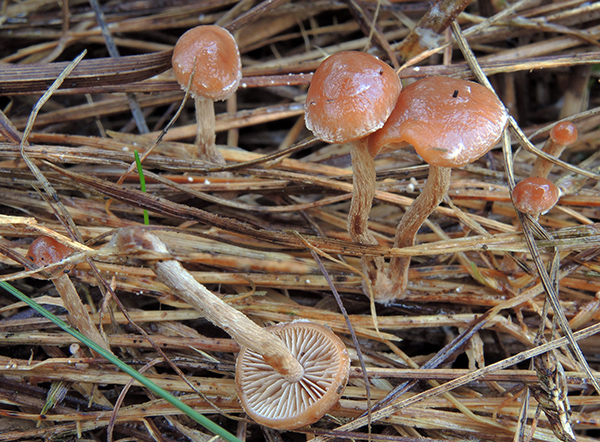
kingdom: Fungi
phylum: Basidiomycota
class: Agaricomycetes
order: Agaricales
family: Strophariaceae
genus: Deconica
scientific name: Deconica inquilina
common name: græs-stråhat
